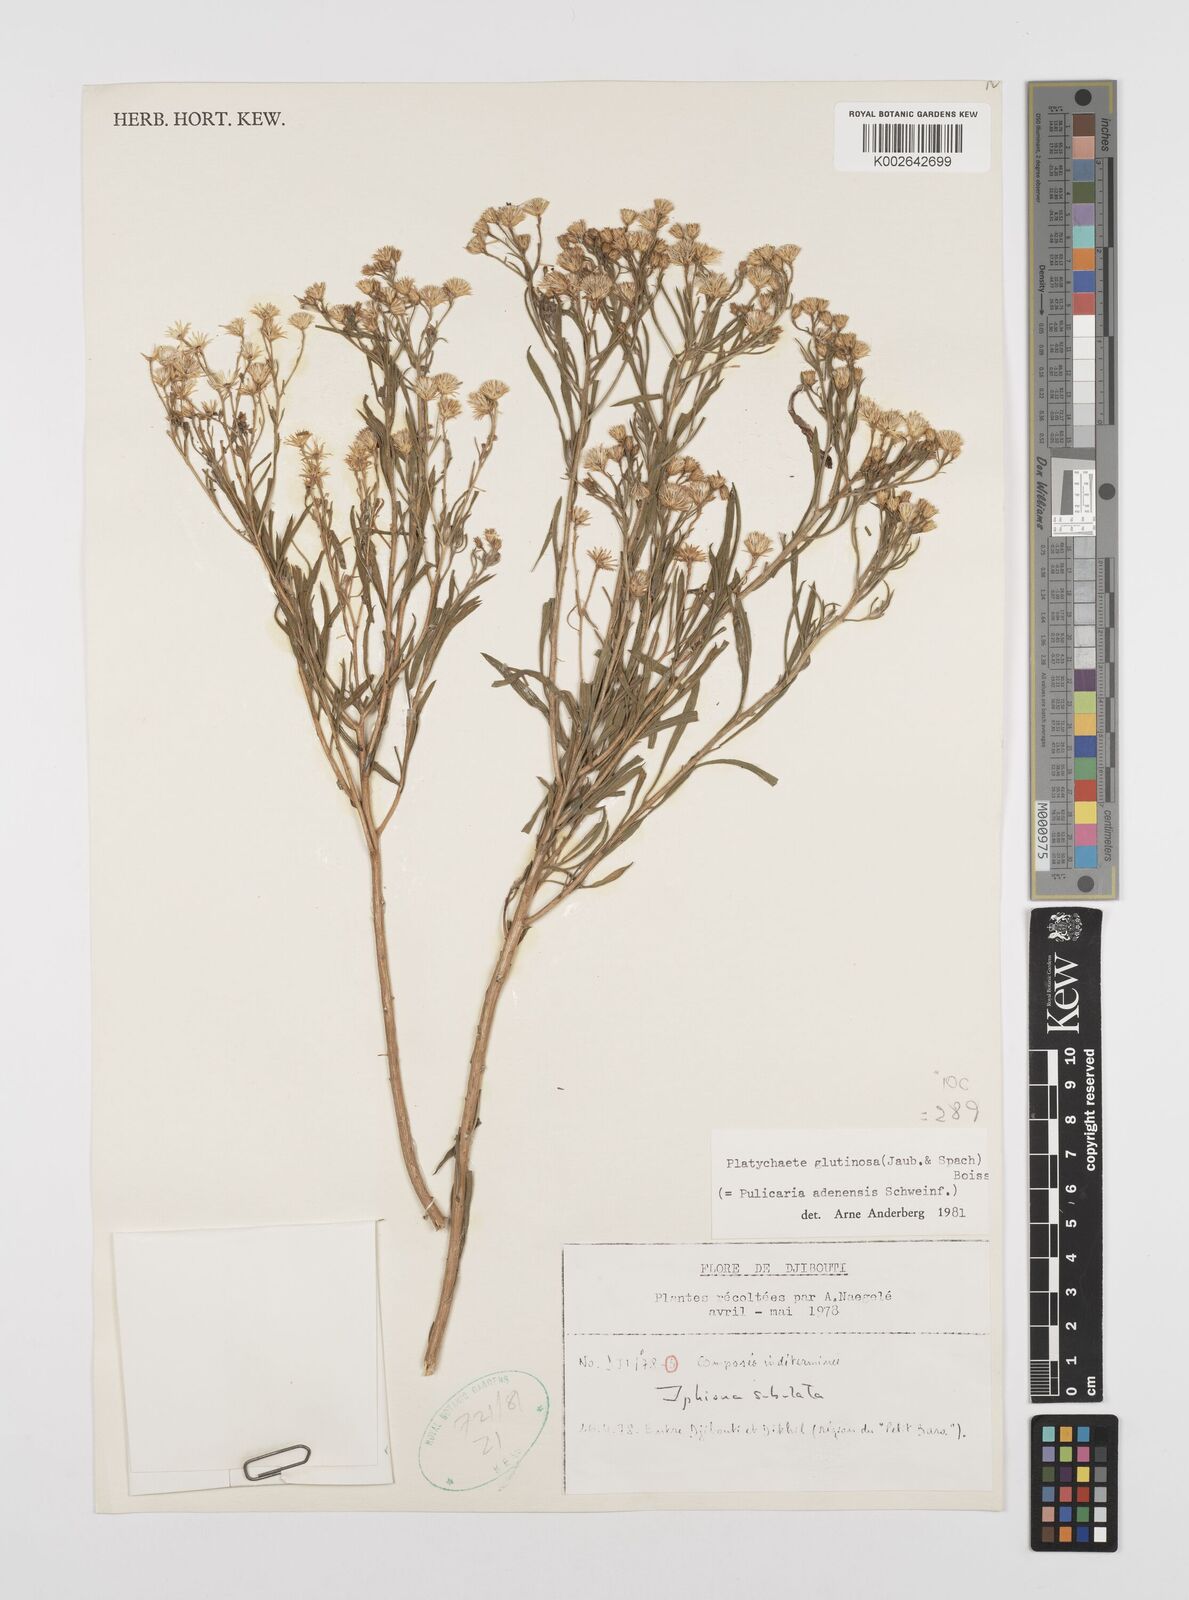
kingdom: Plantae
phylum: Tracheophyta
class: Magnoliopsida
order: Asterales
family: Asteraceae
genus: Pulicaria
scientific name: Pulicaria glutinosa
